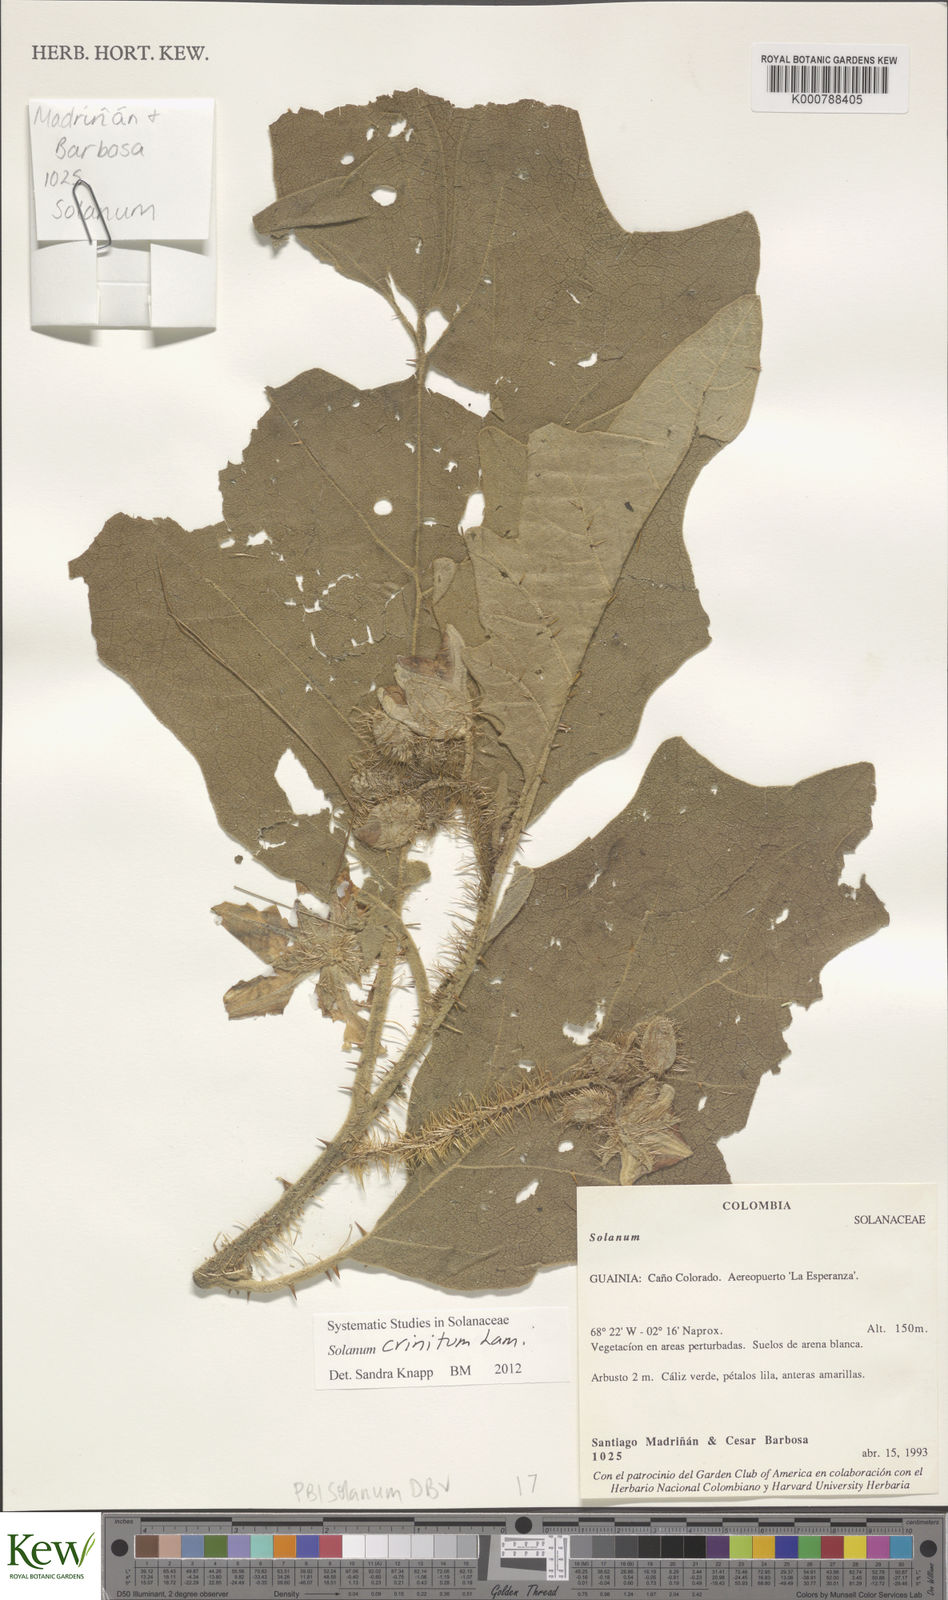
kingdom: Plantae
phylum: Tracheophyta
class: Magnoliopsida
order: Solanales
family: Solanaceae
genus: Solanum
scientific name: Solanum crinitum
